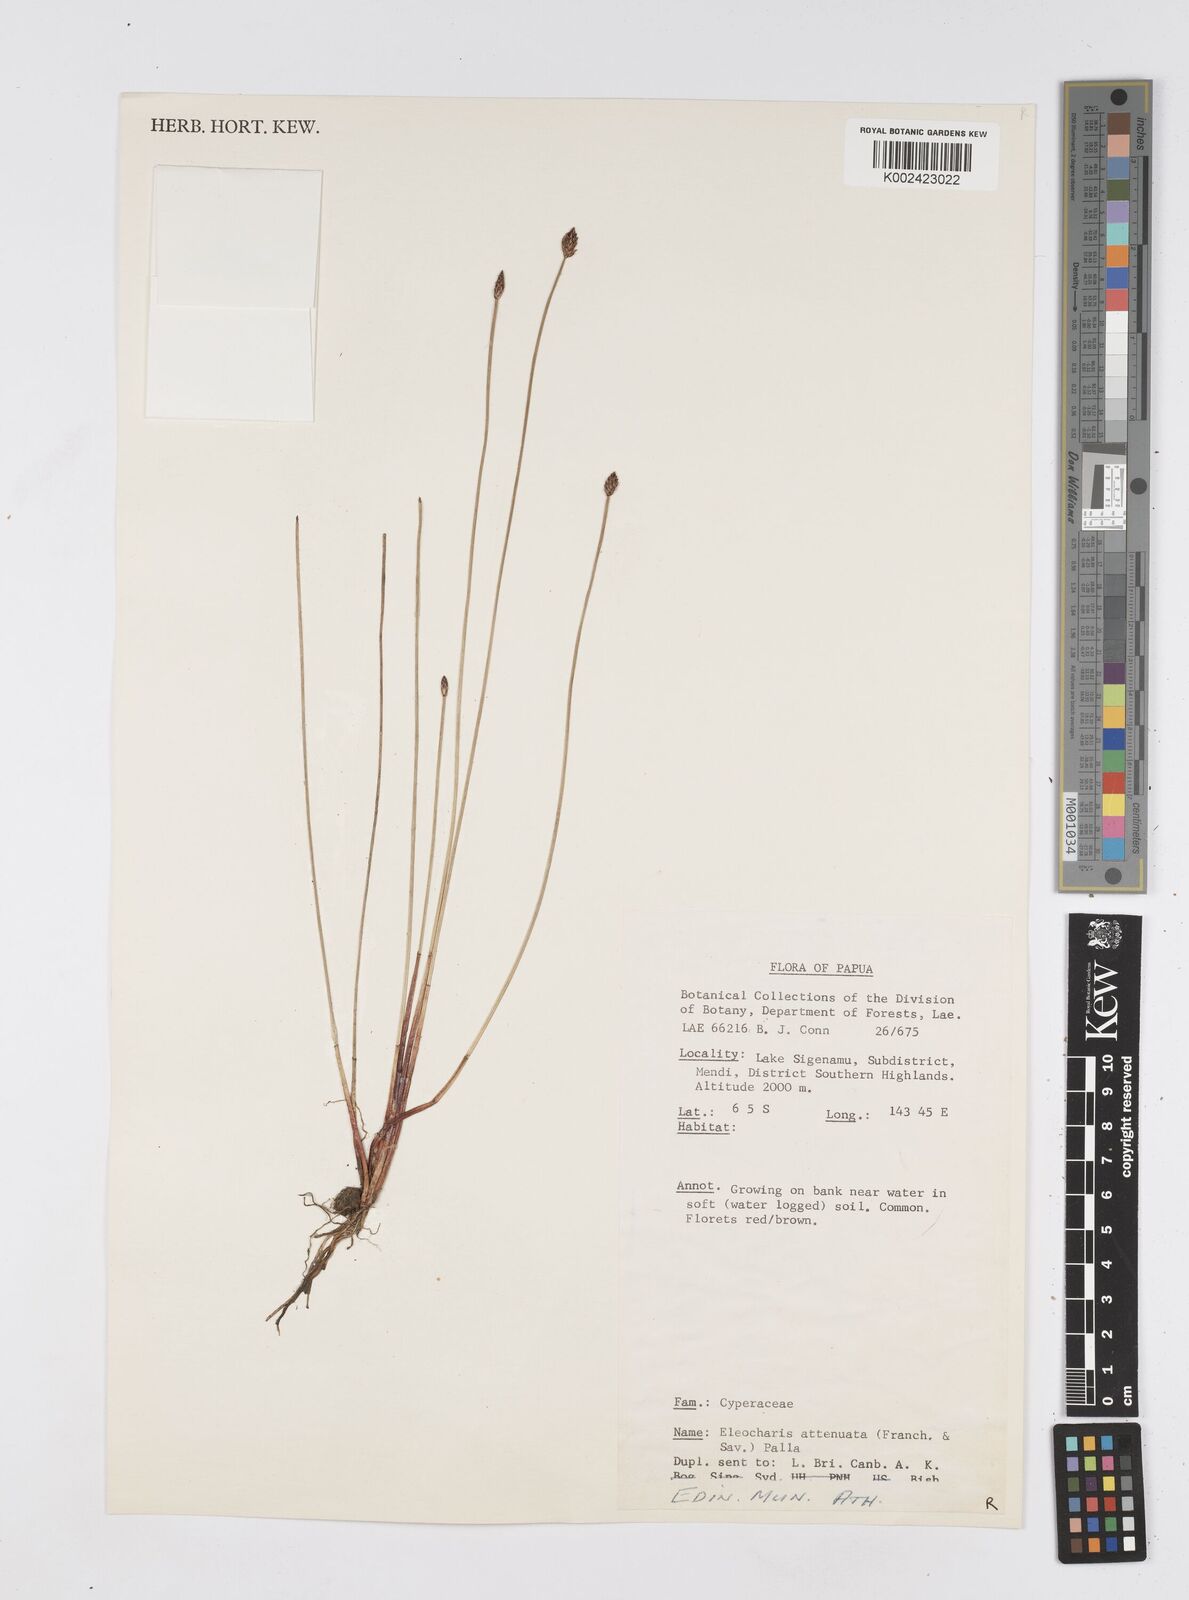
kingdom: Plantae
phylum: Tracheophyta
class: Liliopsida
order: Poales
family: Cyperaceae
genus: Eleocharis
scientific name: Eleocharis attenuata
